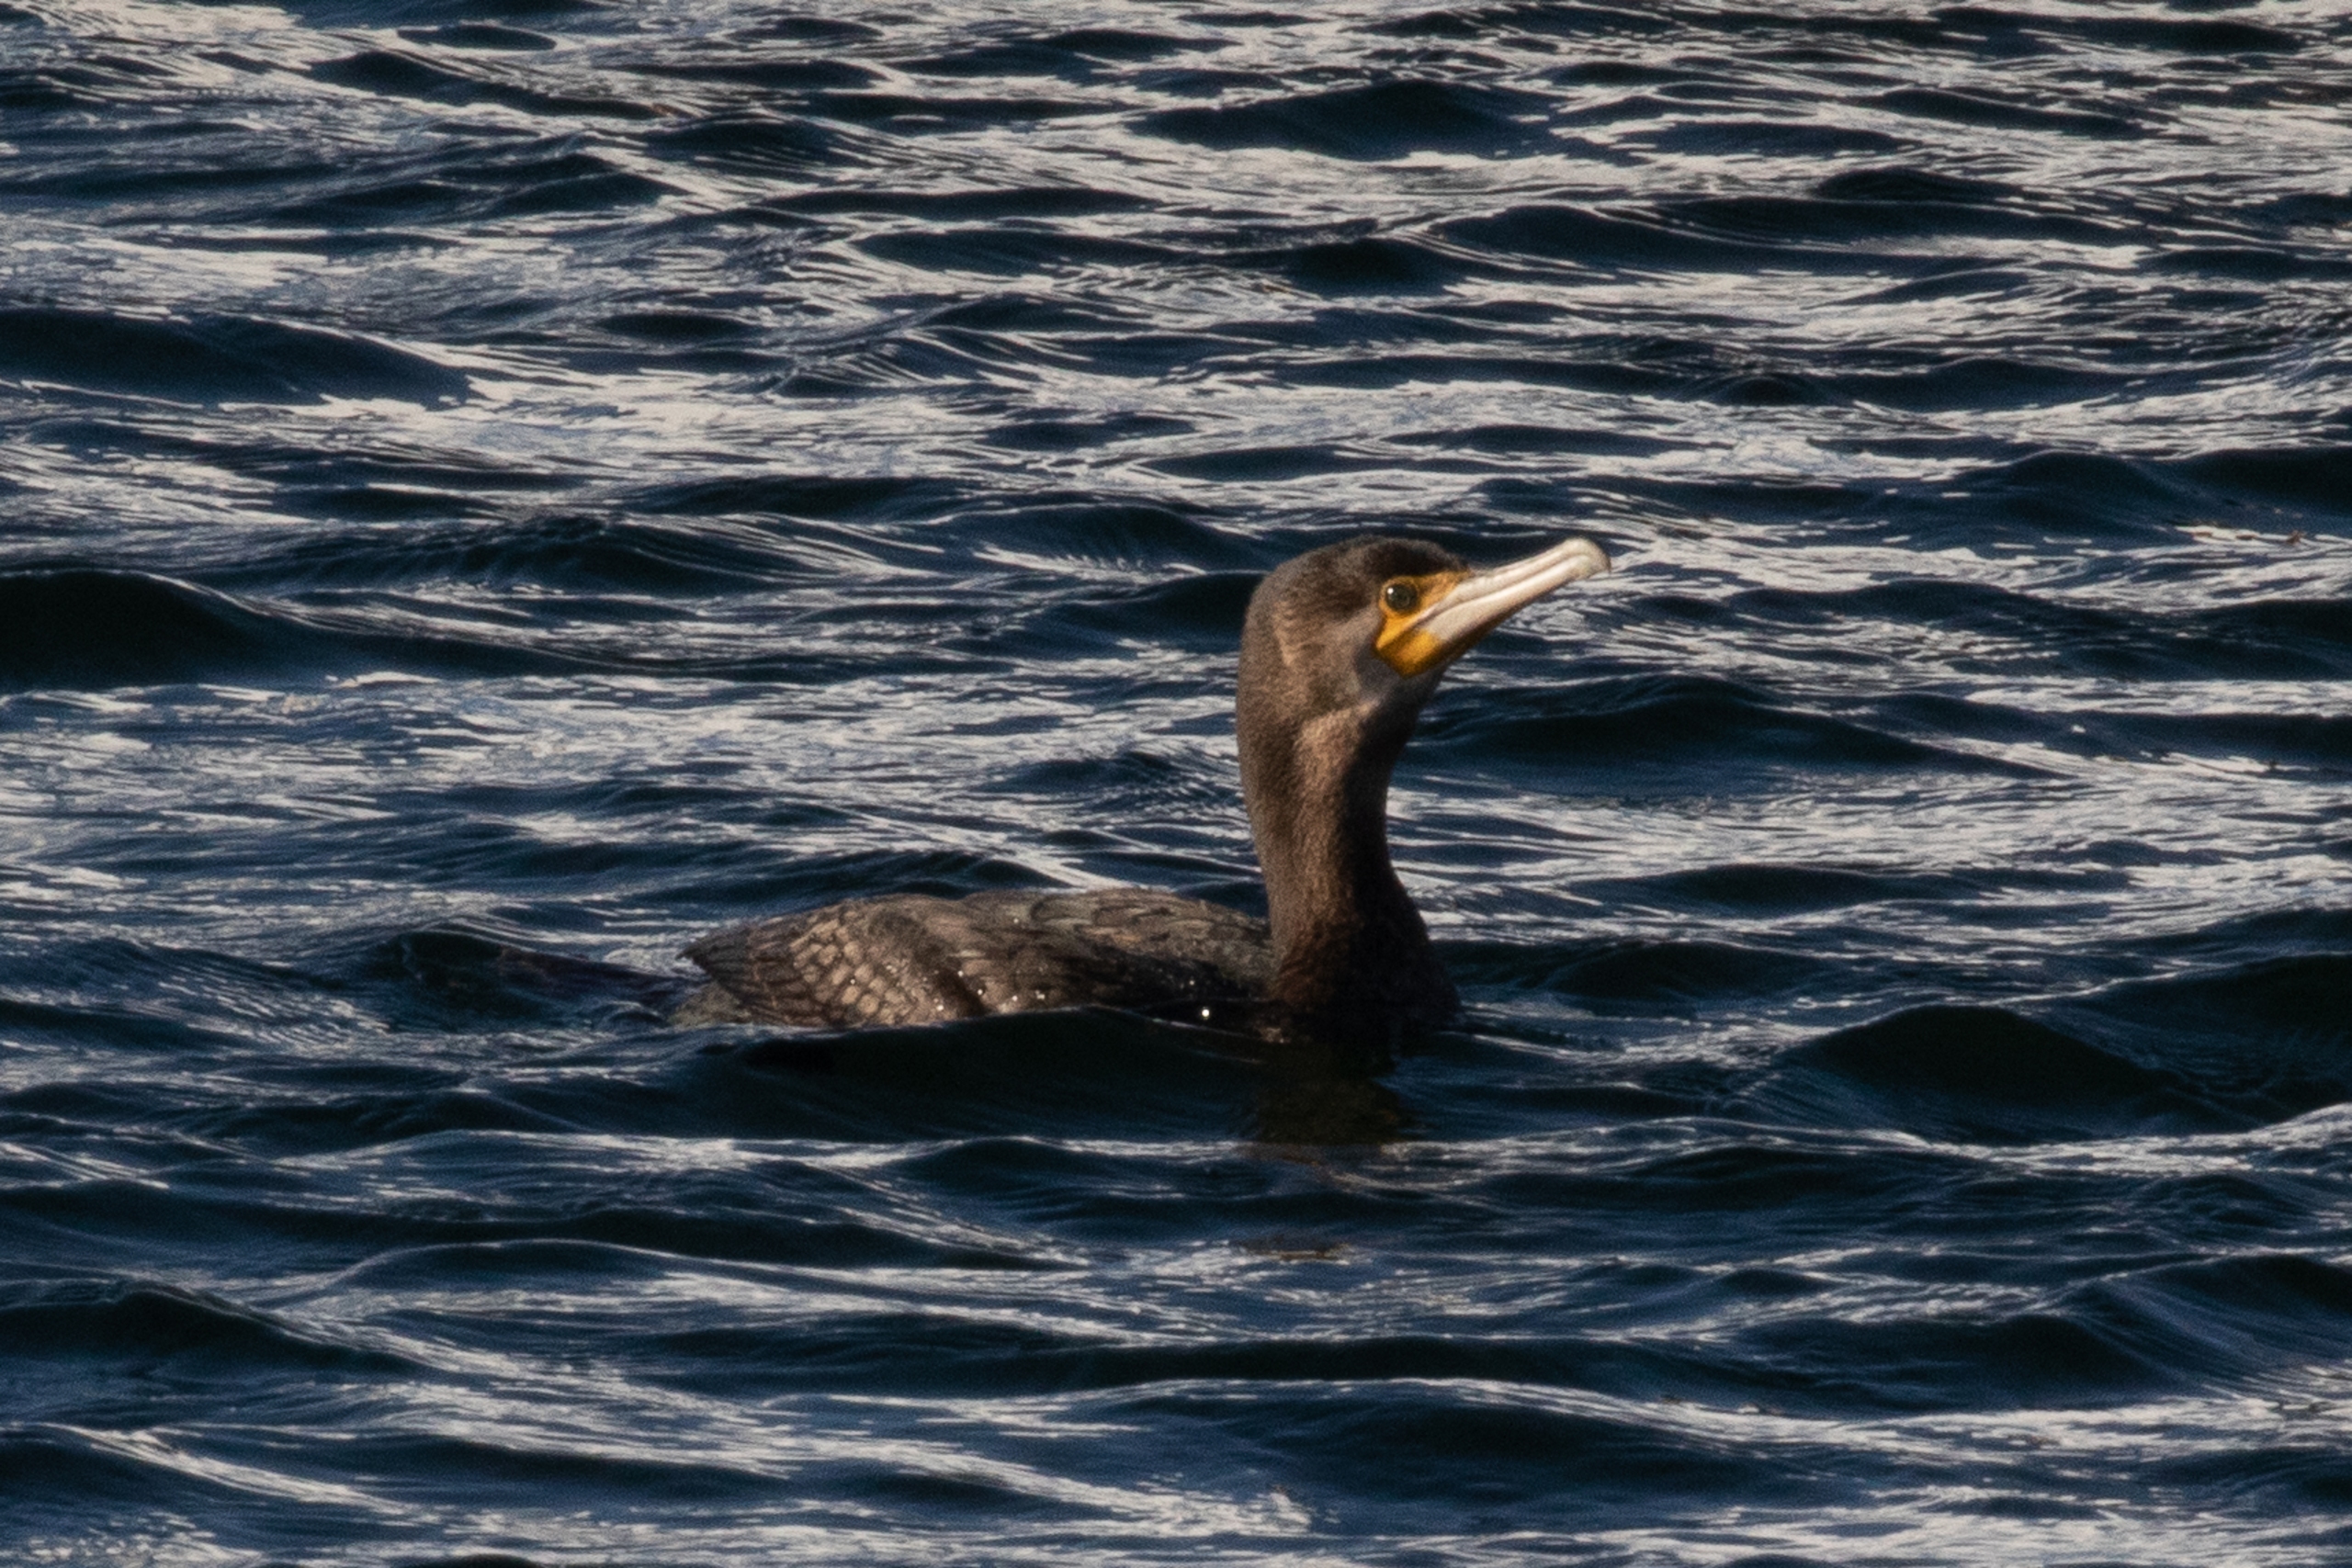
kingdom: Animalia
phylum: Chordata
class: Aves
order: Suliformes
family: Phalacrocoracidae
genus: Phalacrocorax
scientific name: Phalacrocorax carbo
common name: Skarv
